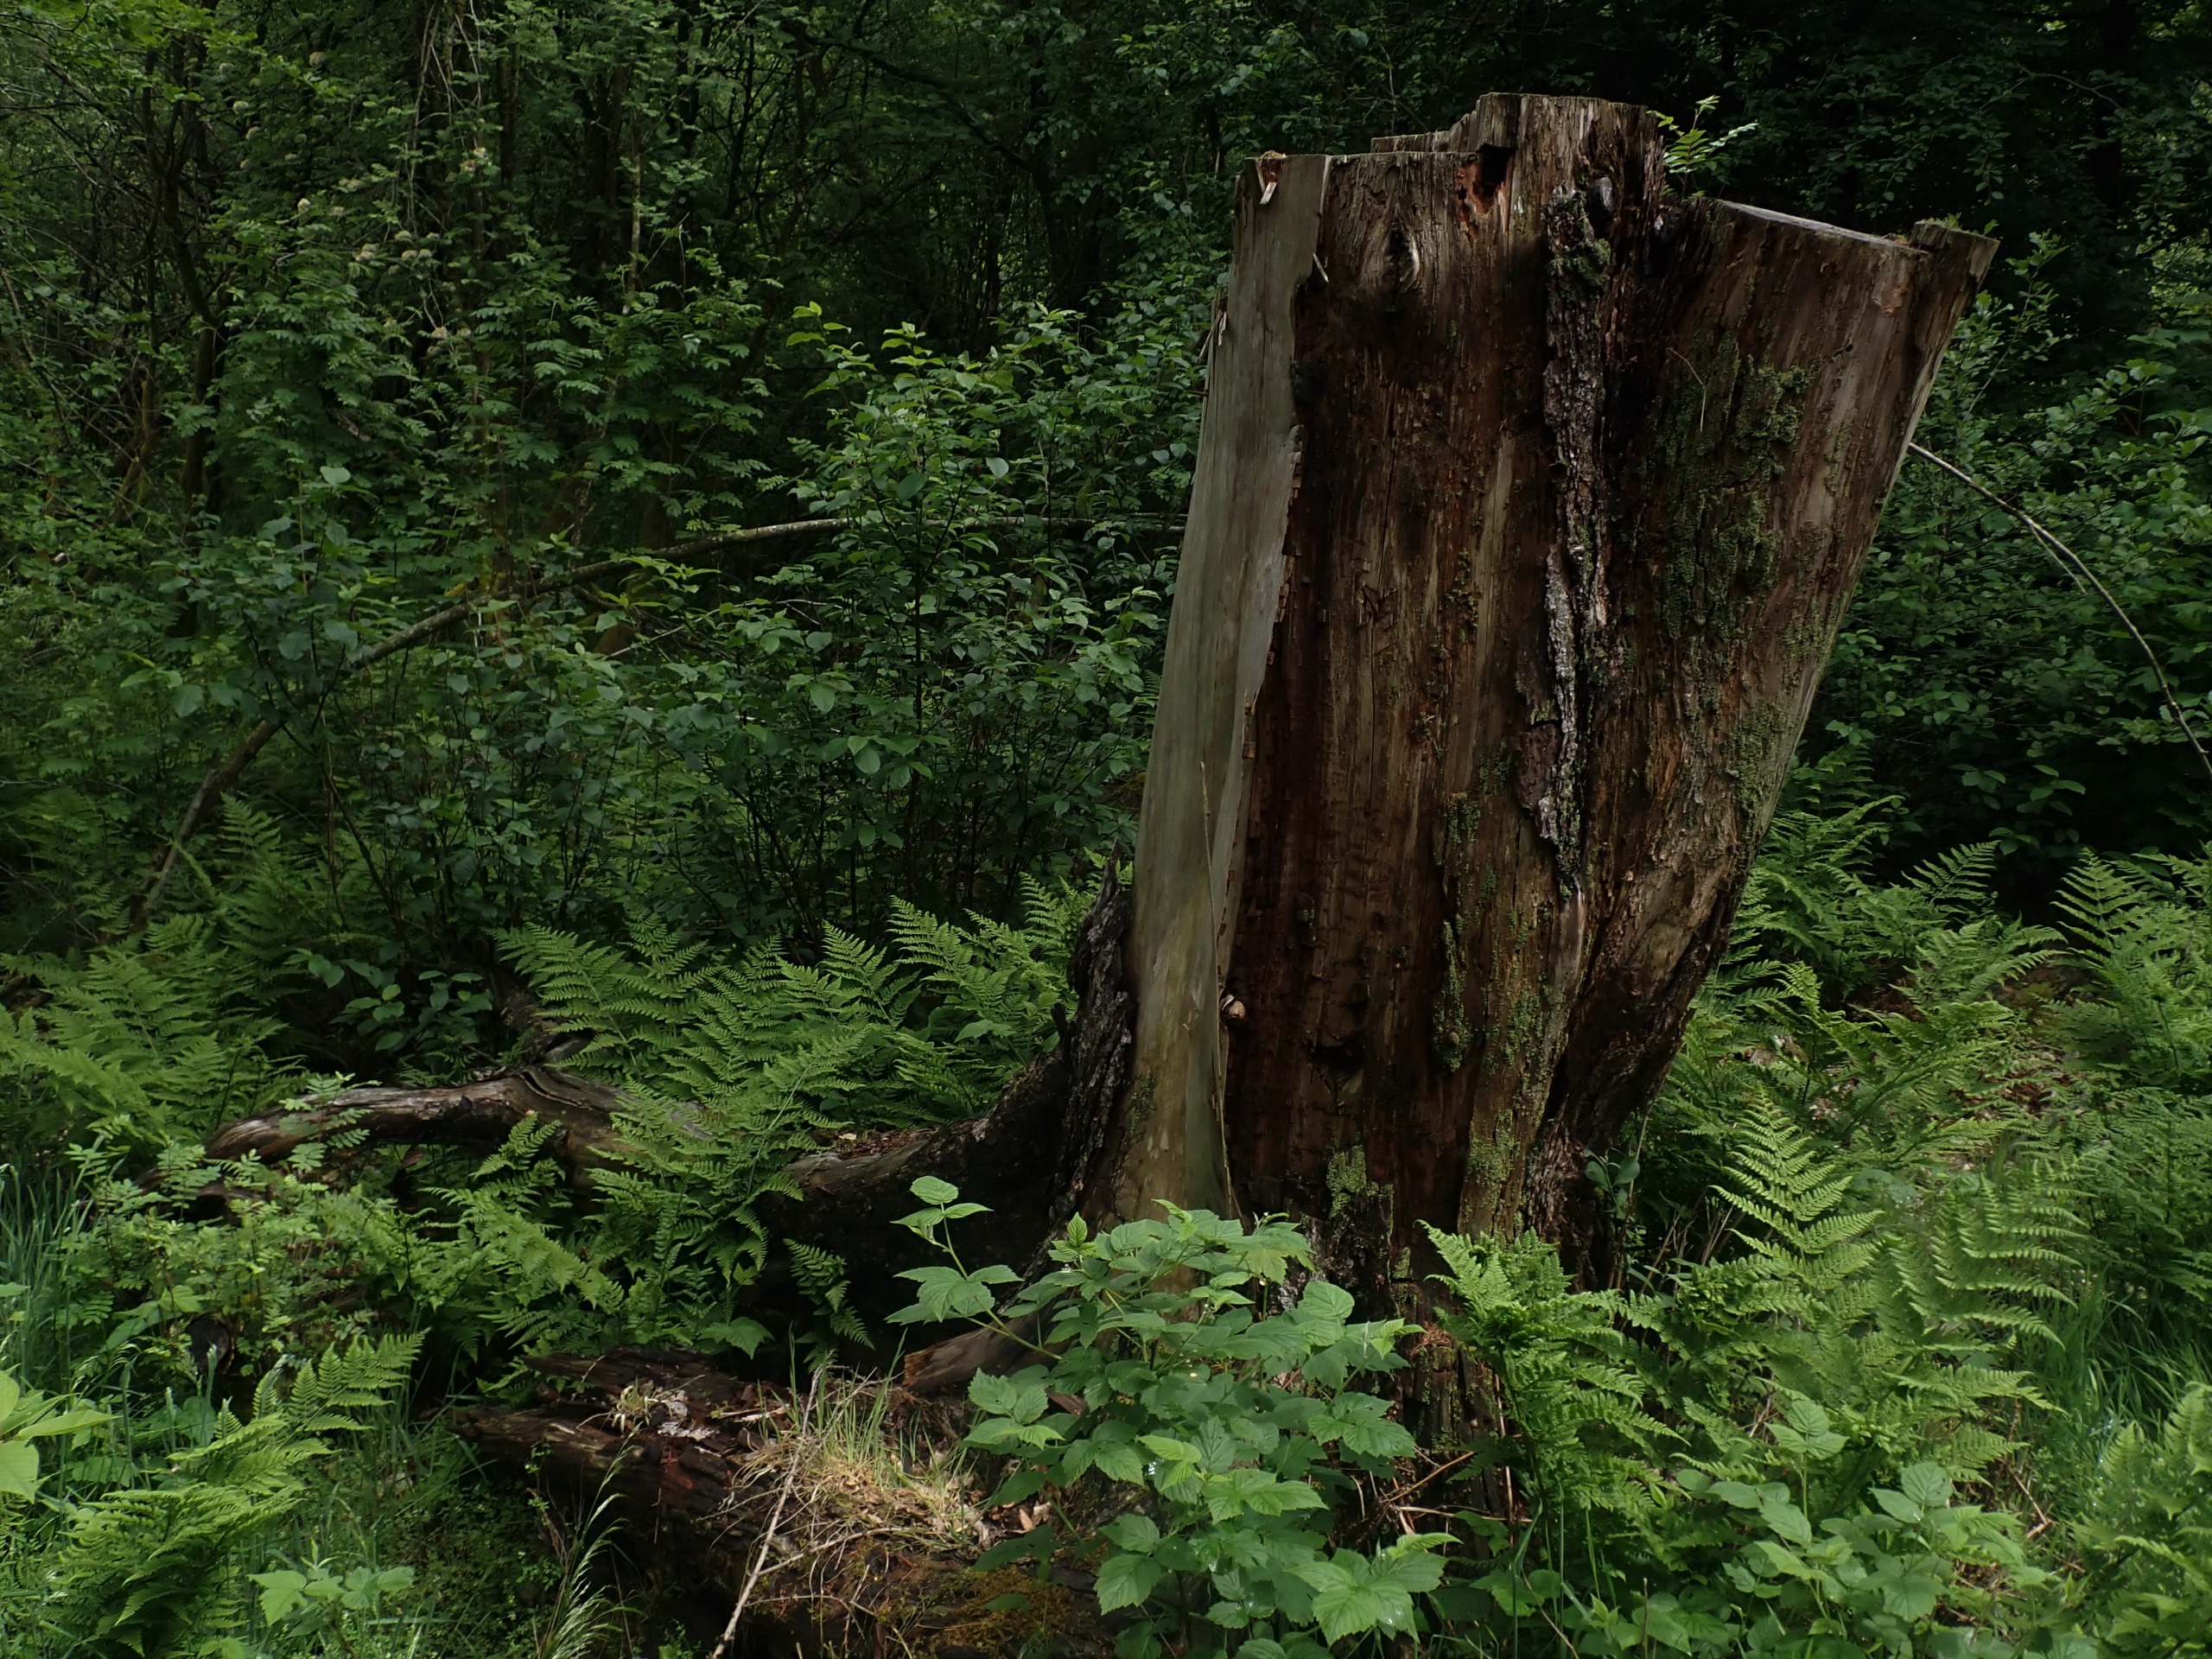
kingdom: Animalia
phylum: Arthropoda
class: Insecta
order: Diptera
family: Syrphidae
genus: Brachypalpus
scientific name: Brachypalpus valgus
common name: Brun træsmuldsvirreflue
